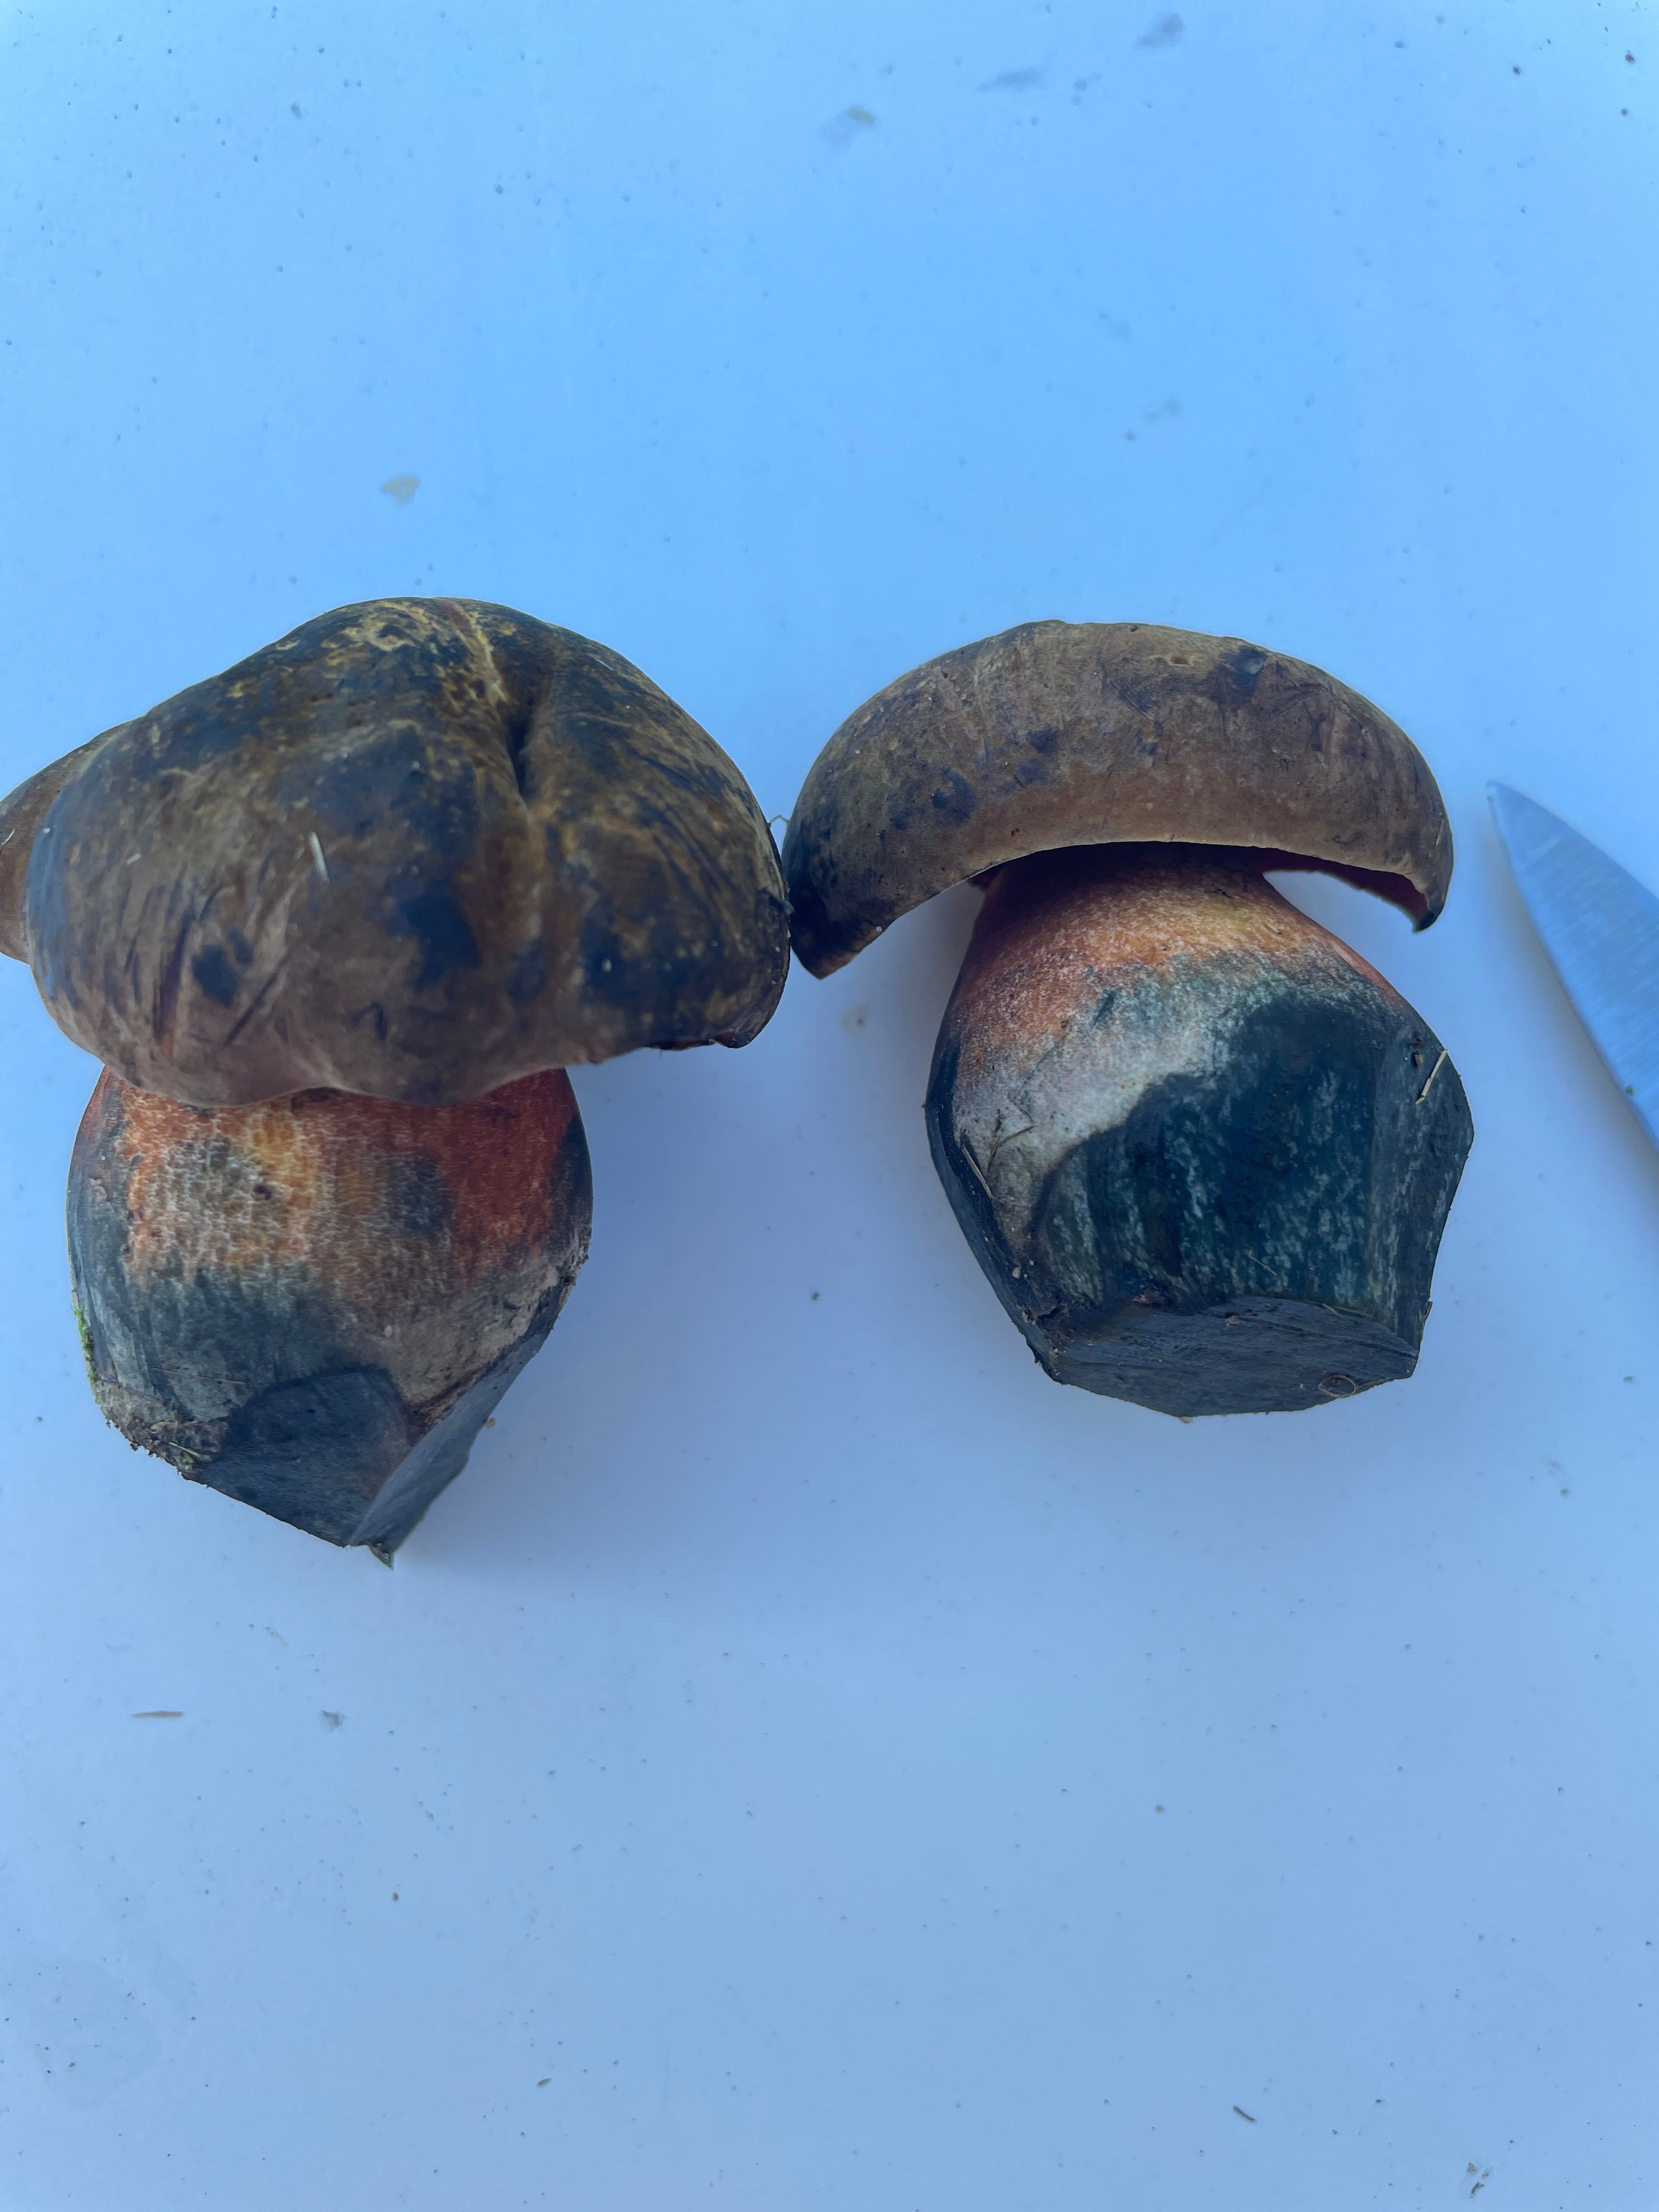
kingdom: Fungi
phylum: Basidiomycota
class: Agaricomycetes
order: Boletales
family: Boletaceae
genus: Neoboletus
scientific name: Neoboletus erythropus
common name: punktstokket indigorørhat
